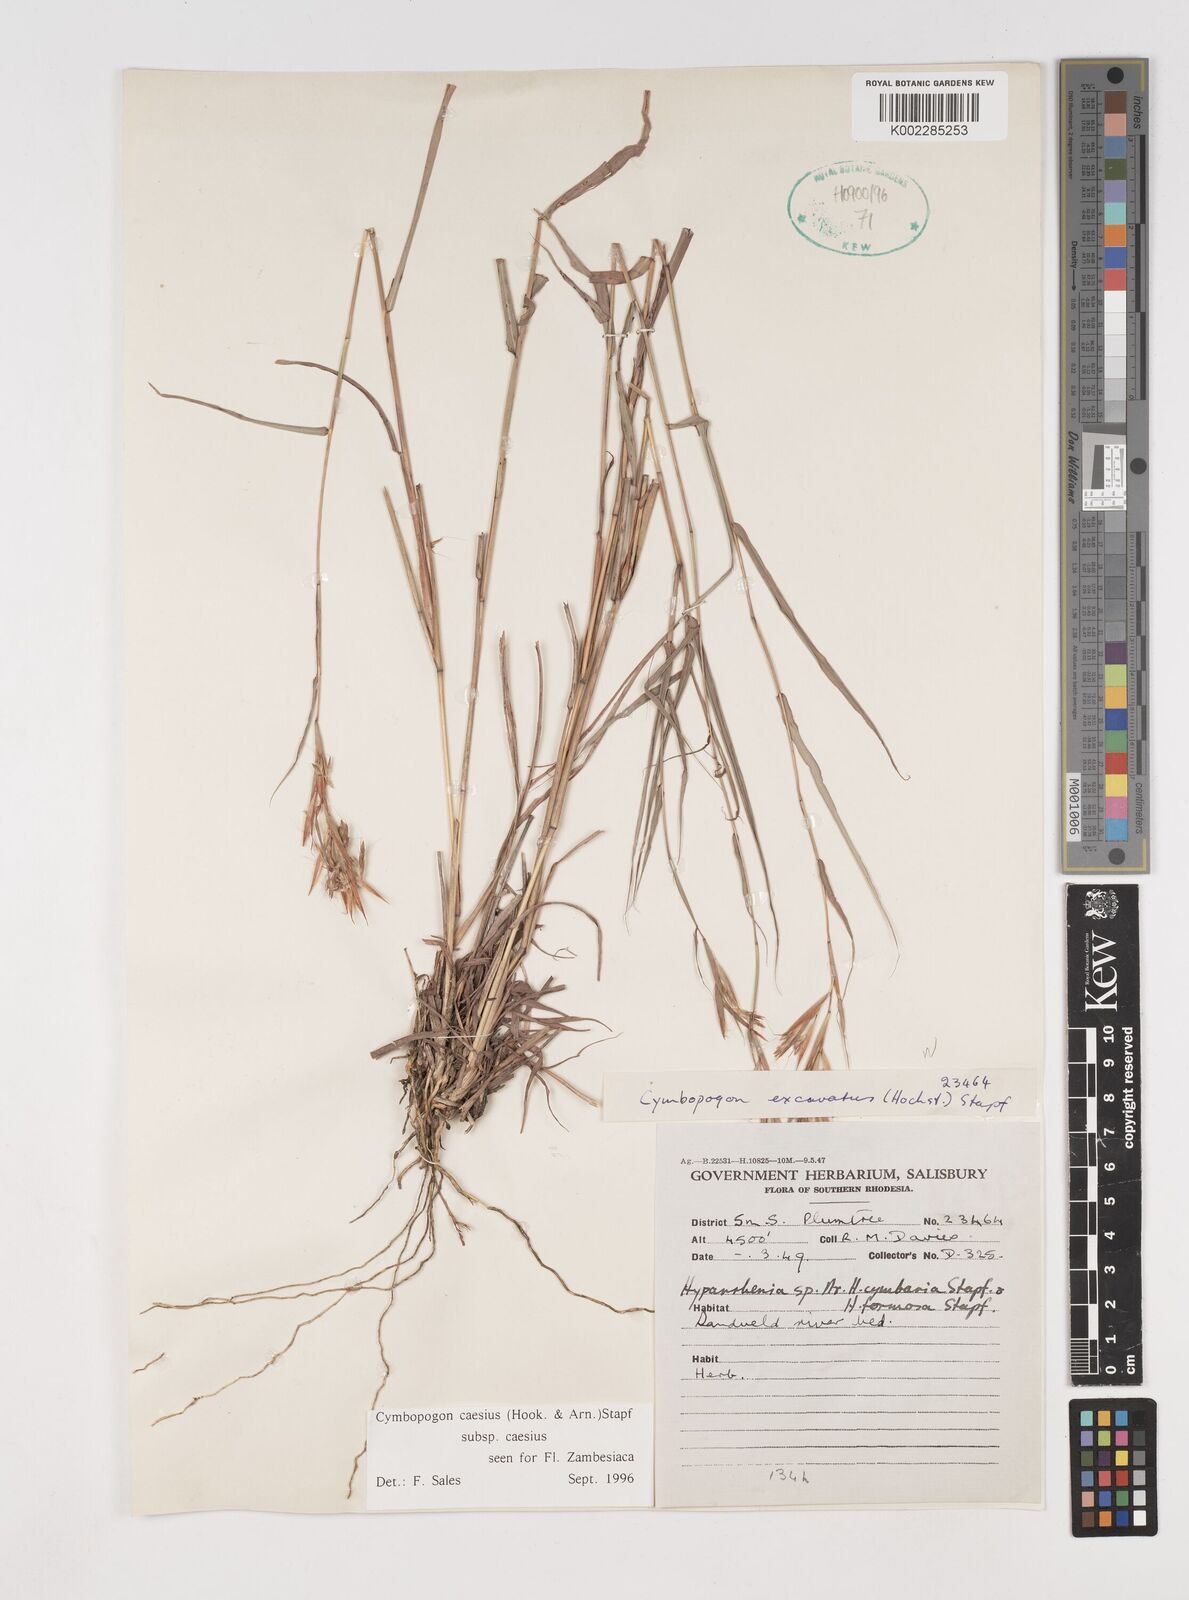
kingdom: Plantae
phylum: Tracheophyta
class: Liliopsida
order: Poales
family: Poaceae
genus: Cymbopogon
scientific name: Cymbopogon caesius
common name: Kachi grass
